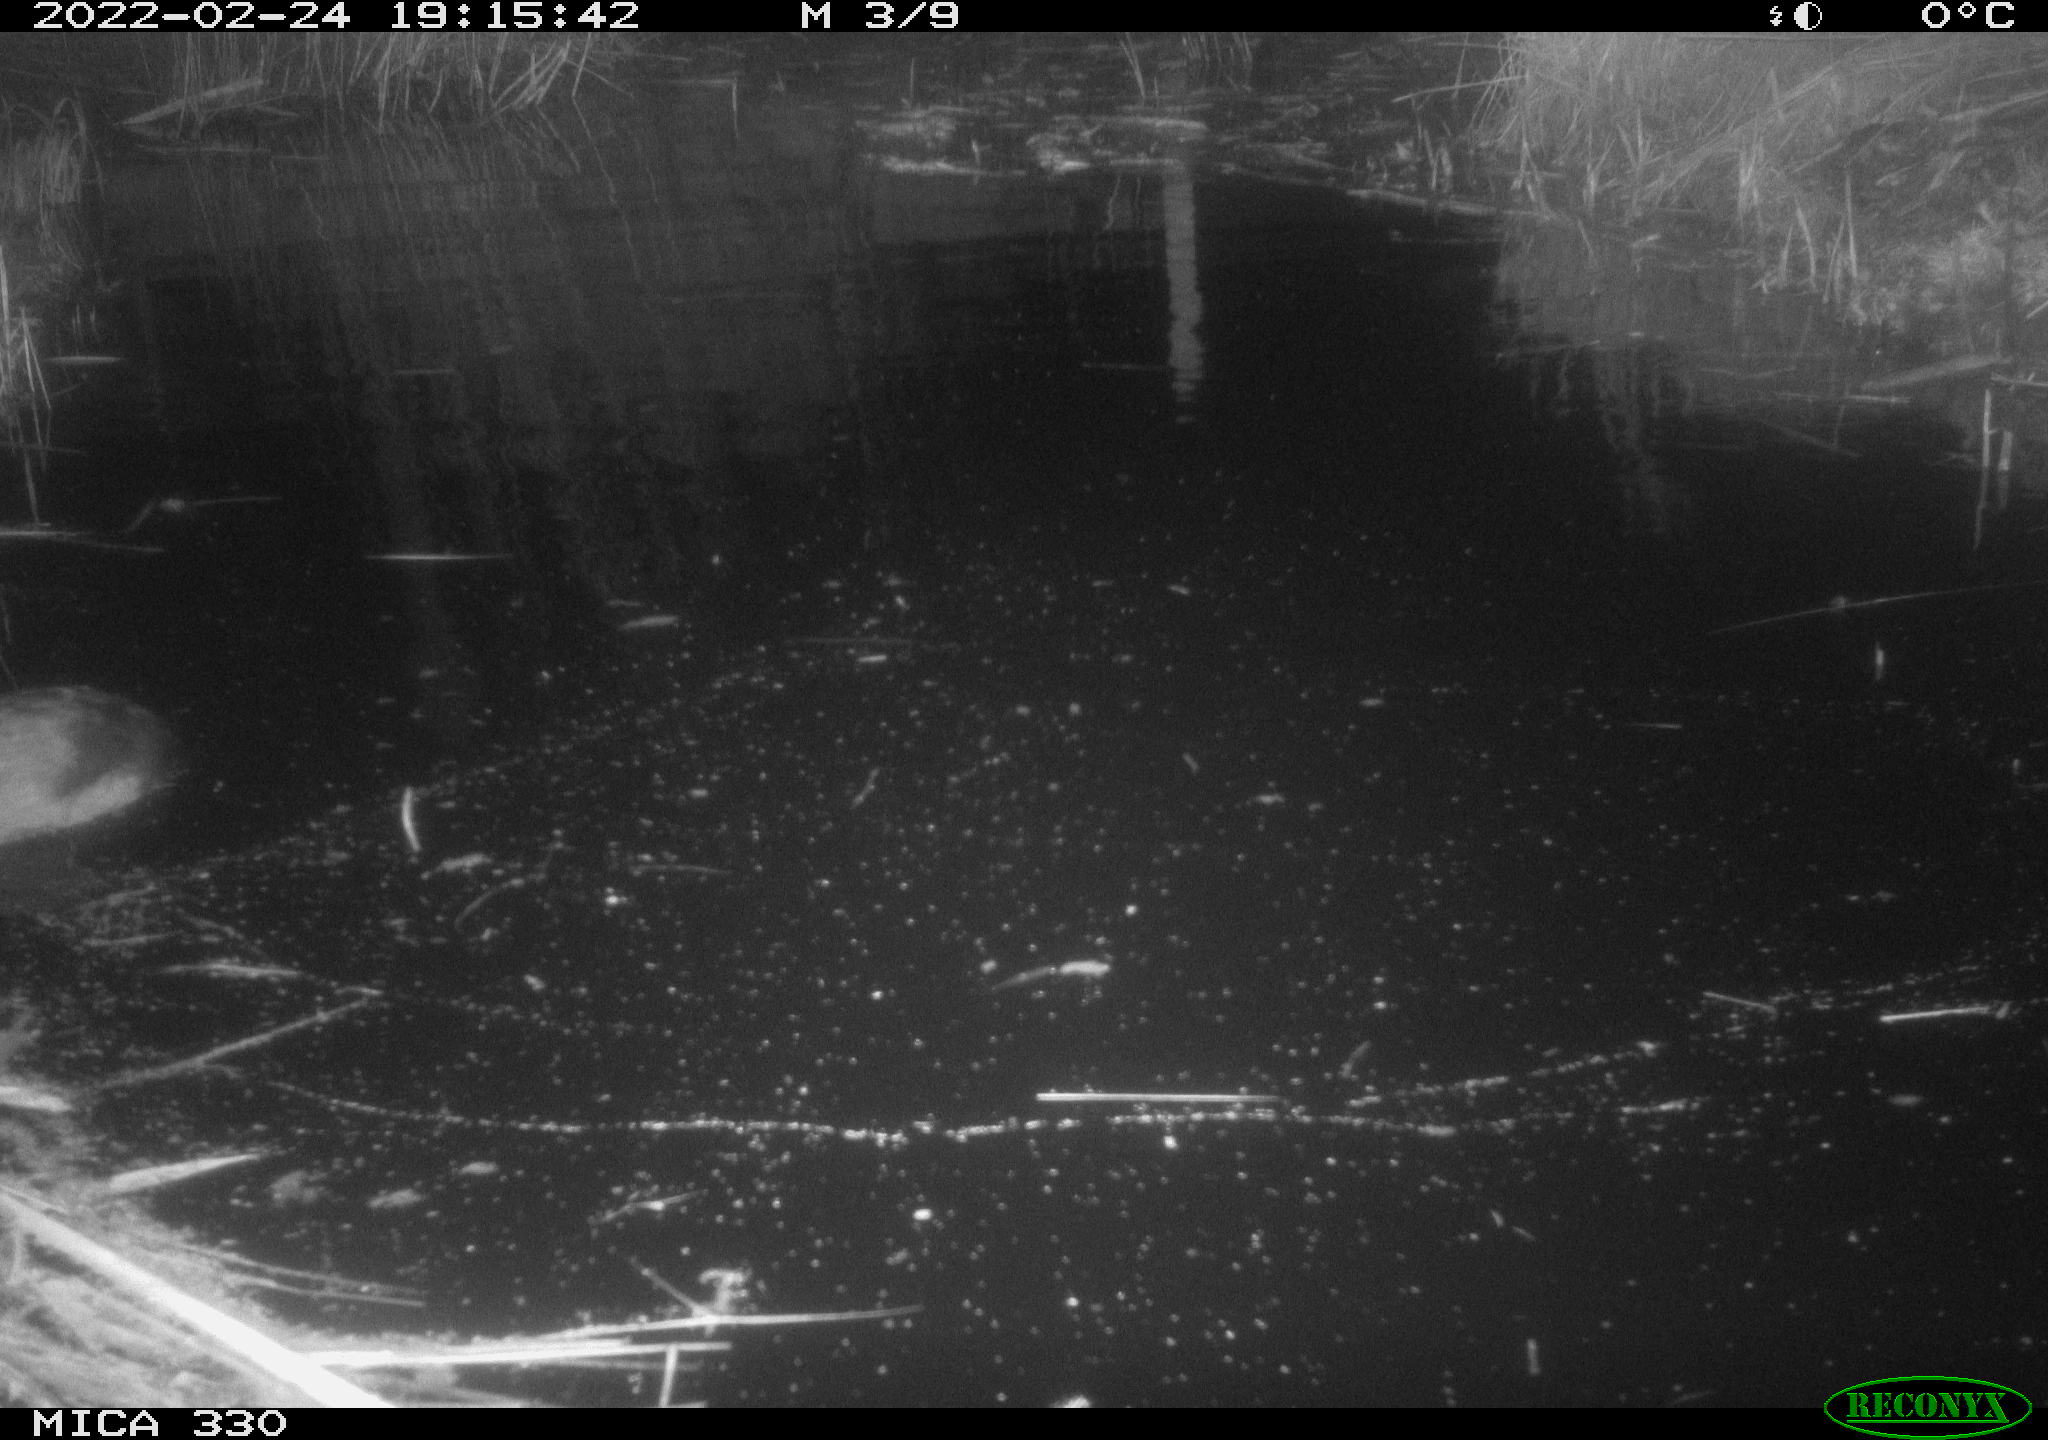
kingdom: Animalia
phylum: Chordata
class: Aves
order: Gruiformes
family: Rallidae
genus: Fulica
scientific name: Fulica atra
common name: Eurasian coot
